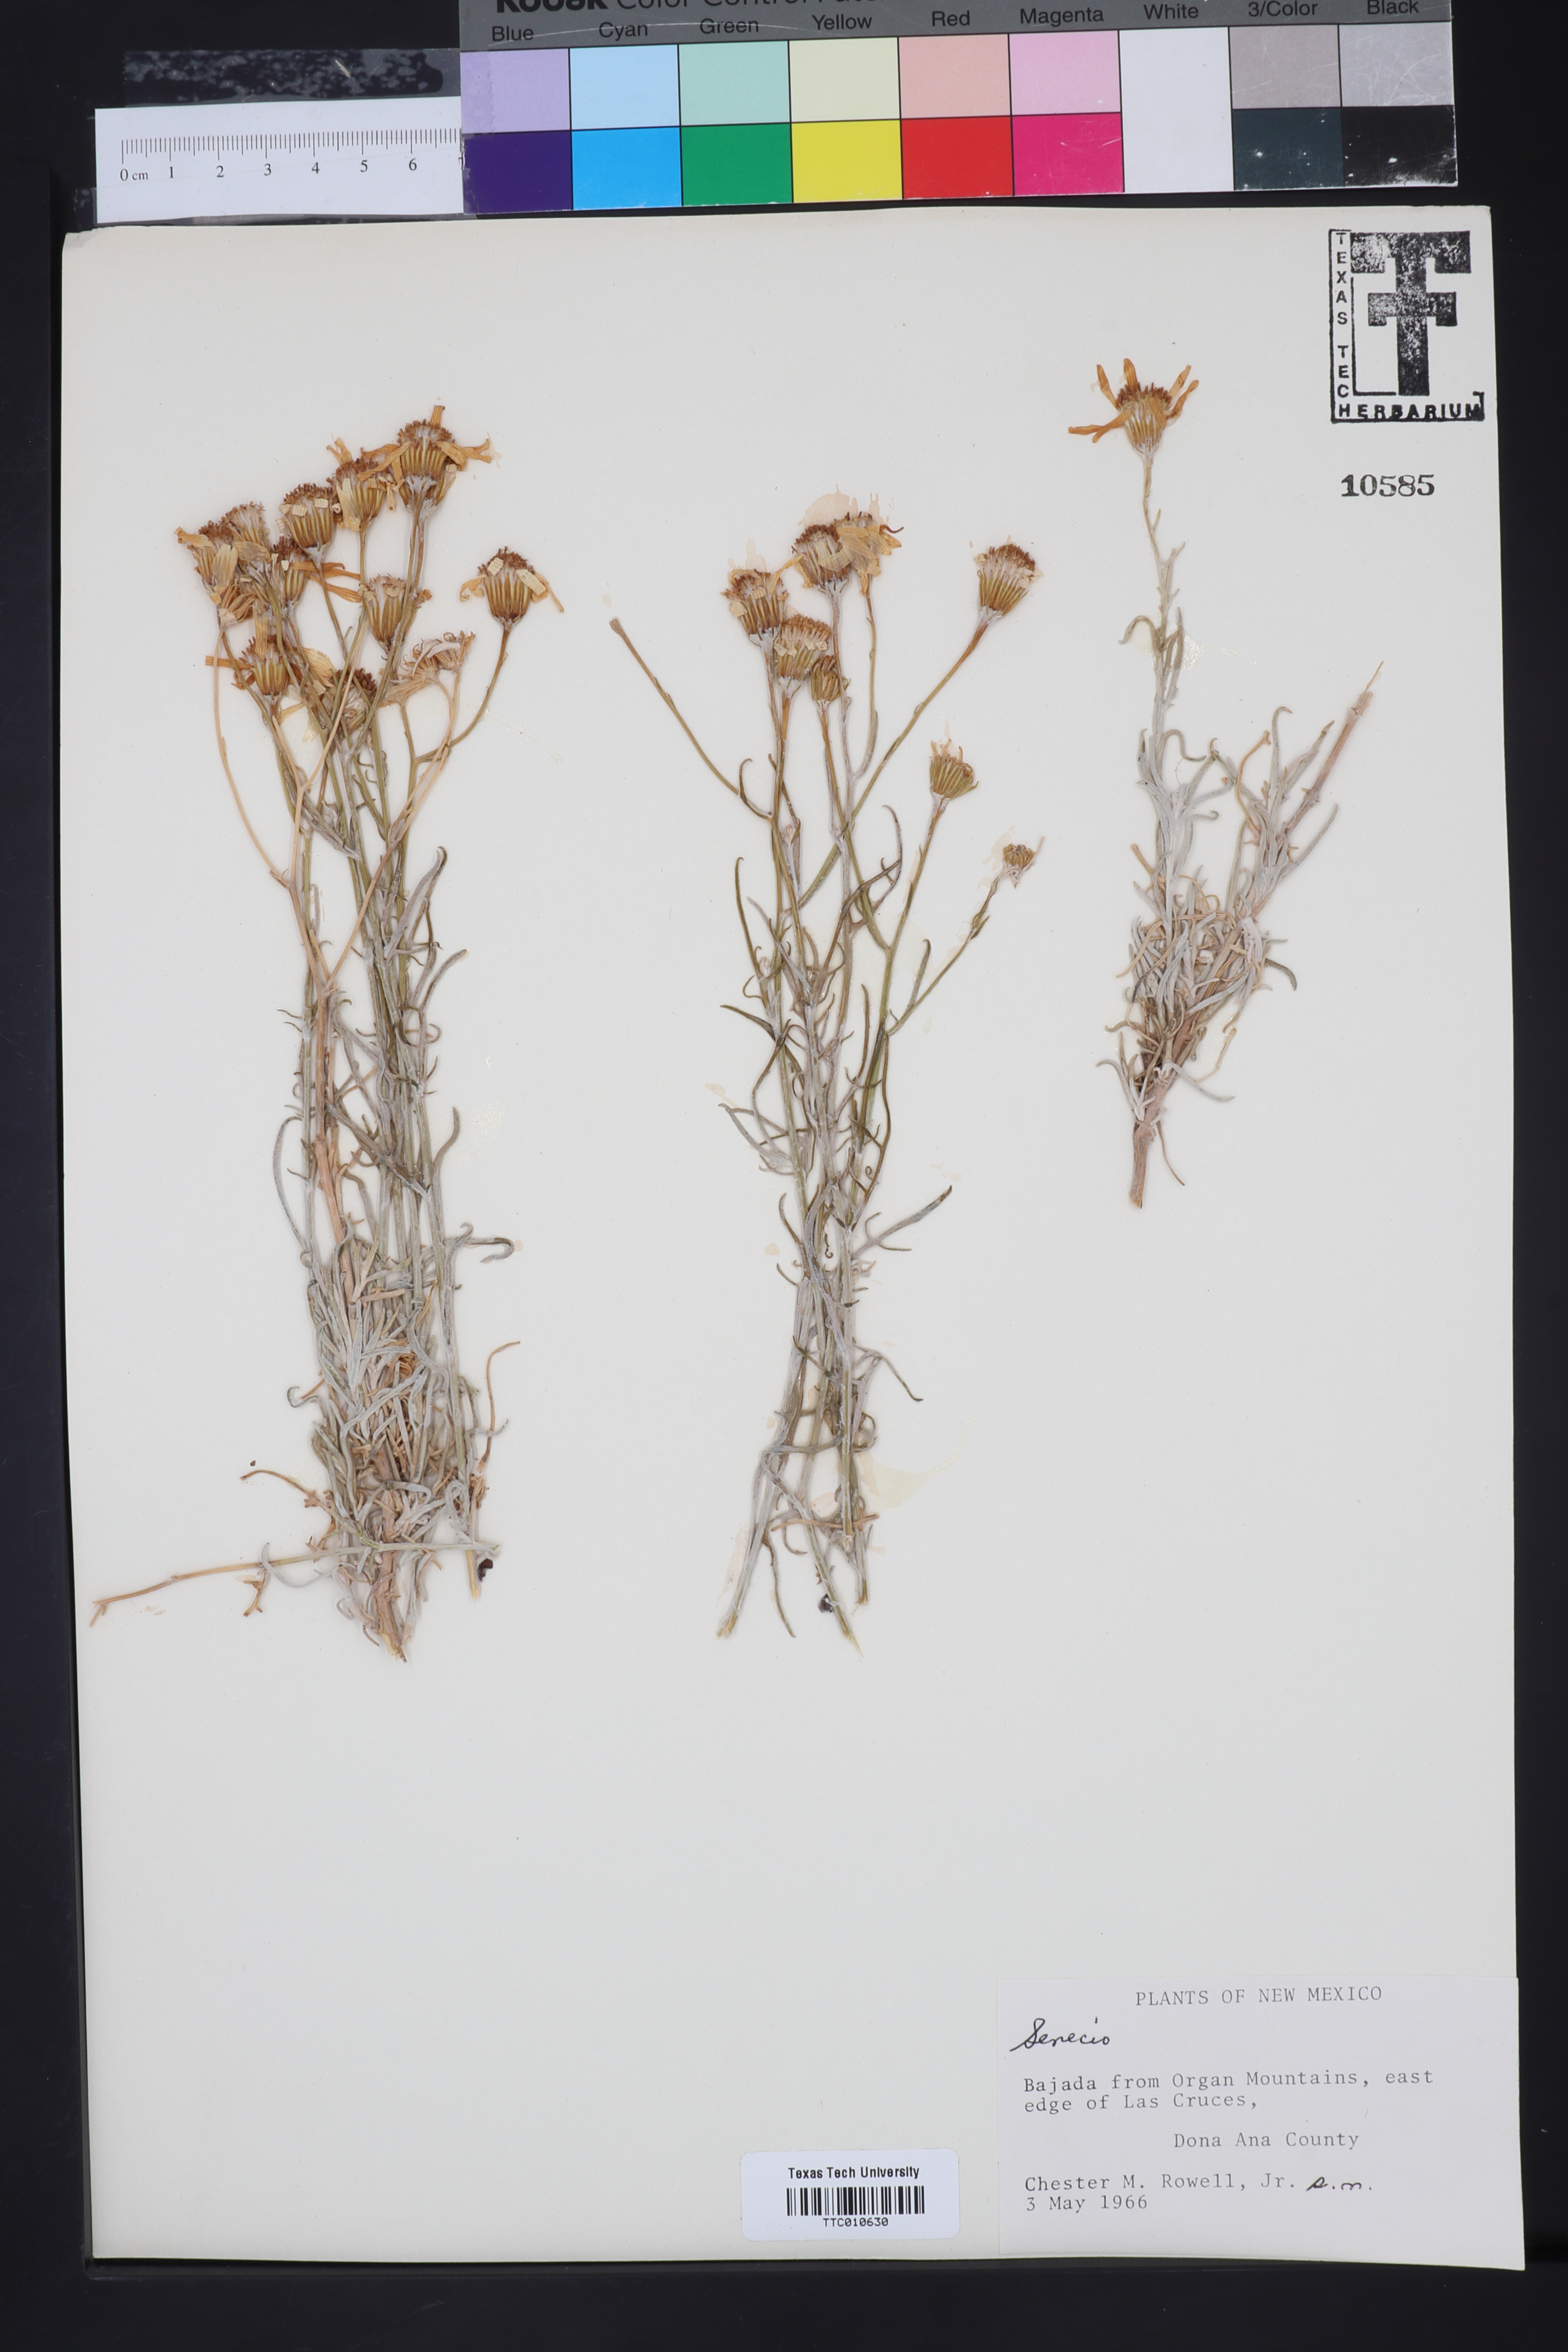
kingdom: Plantae
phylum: Tracheophyta
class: Magnoliopsida
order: Asterales
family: Asteraceae
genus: Senecio
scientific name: Senecio
